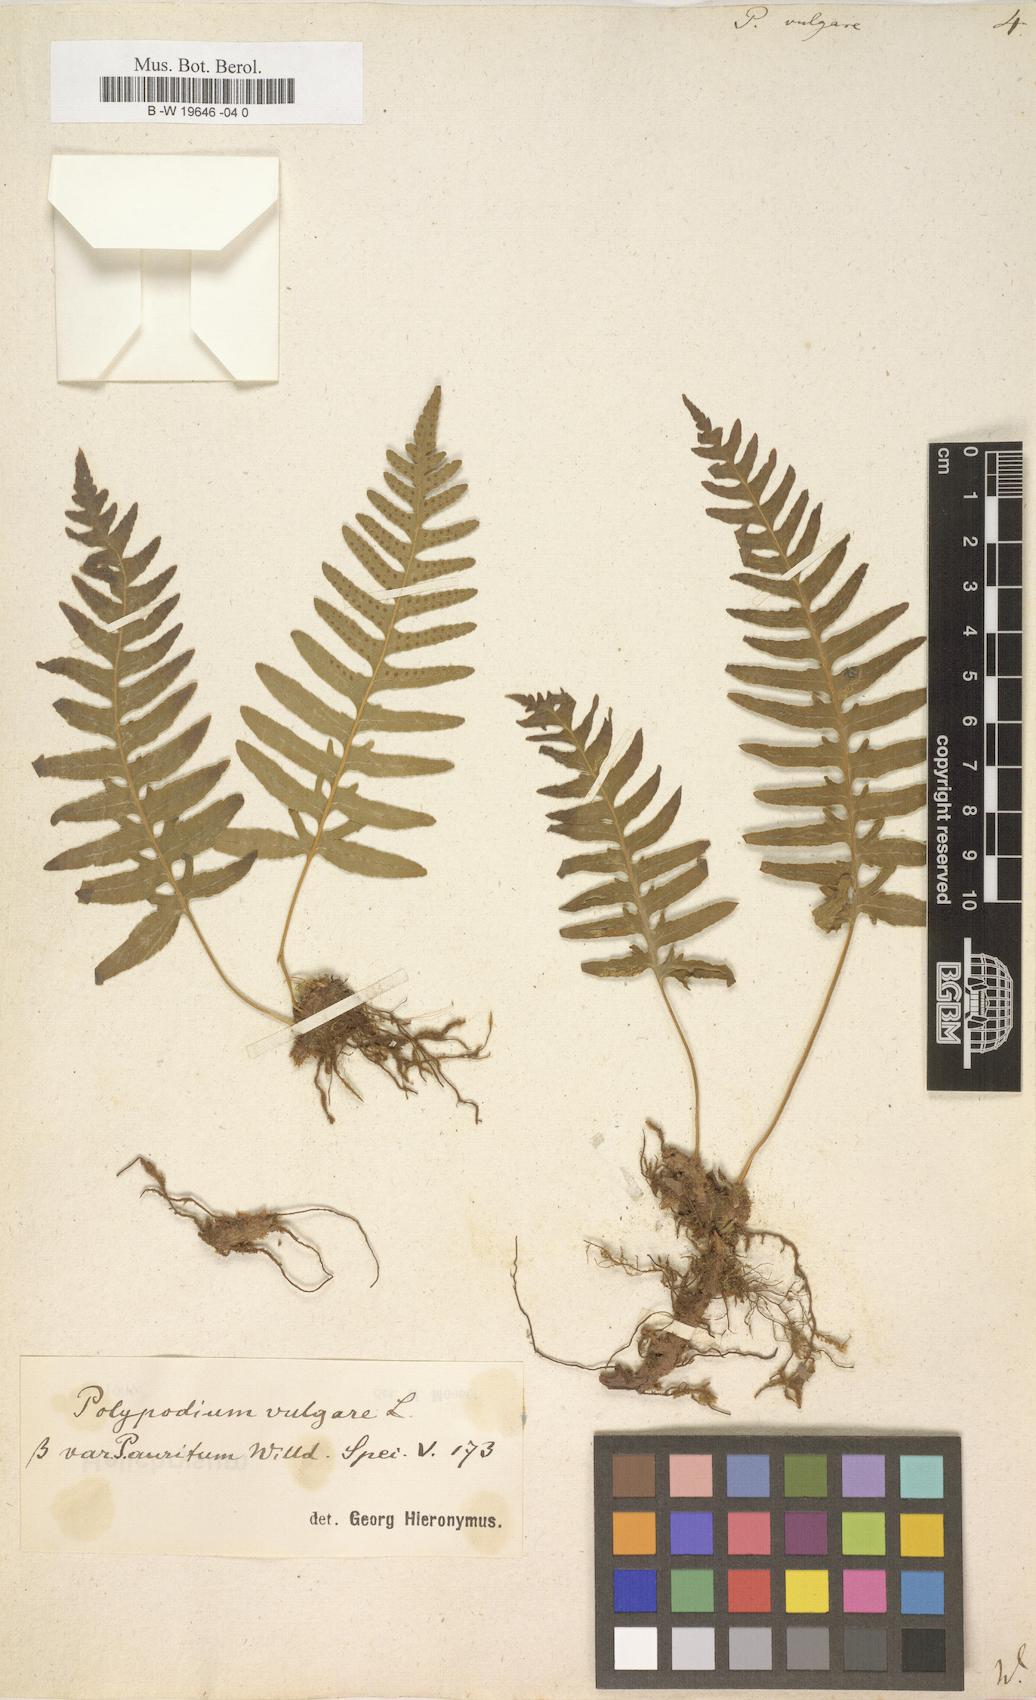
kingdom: Plantae
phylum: Tracheophyta
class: Polypodiopsida
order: Polypodiales
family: Polypodiaceae
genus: Polypodium
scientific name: Polypodium vulgare
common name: Common polypody
